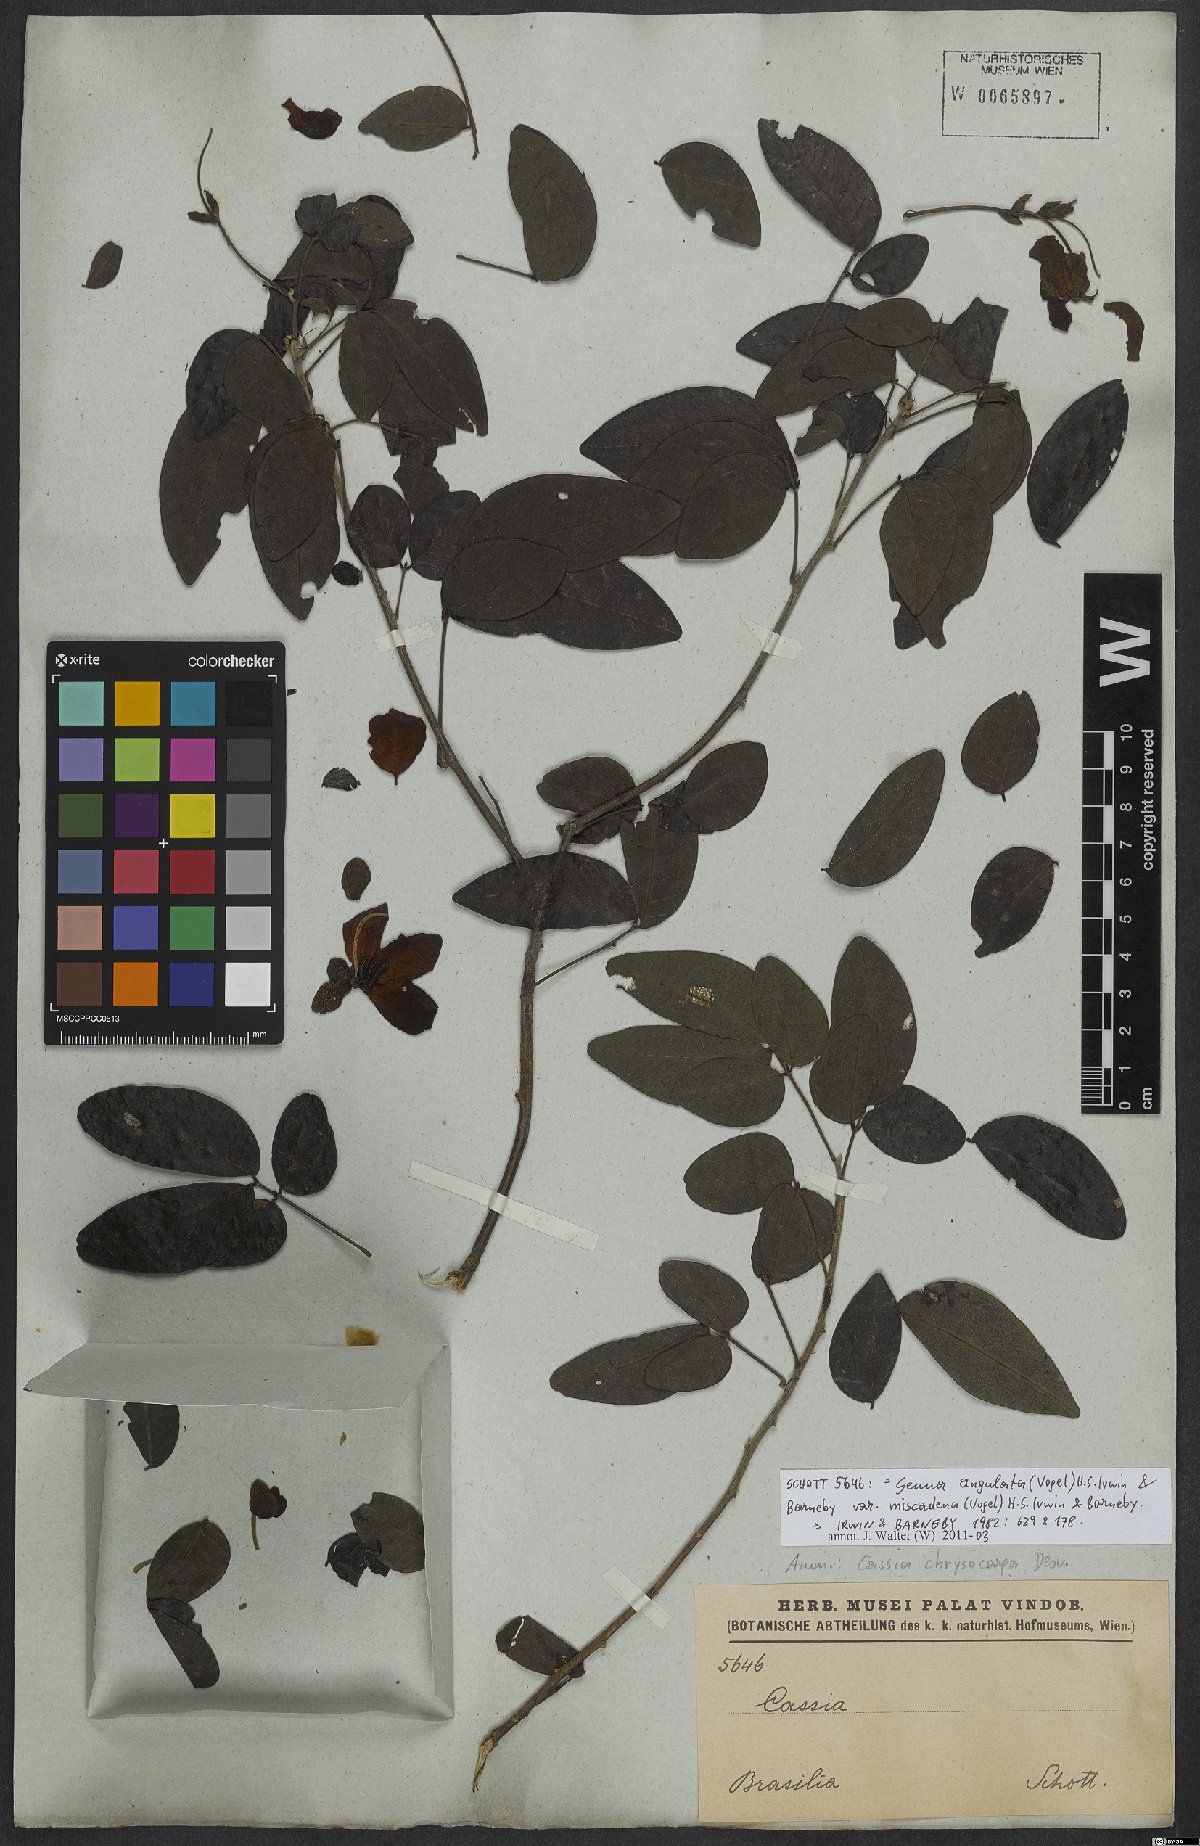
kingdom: Plantae
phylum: Tracheophyta
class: Magnoliopsida
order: Fabales
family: Fabaceae
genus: Senna
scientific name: Senna chrysocarpa
